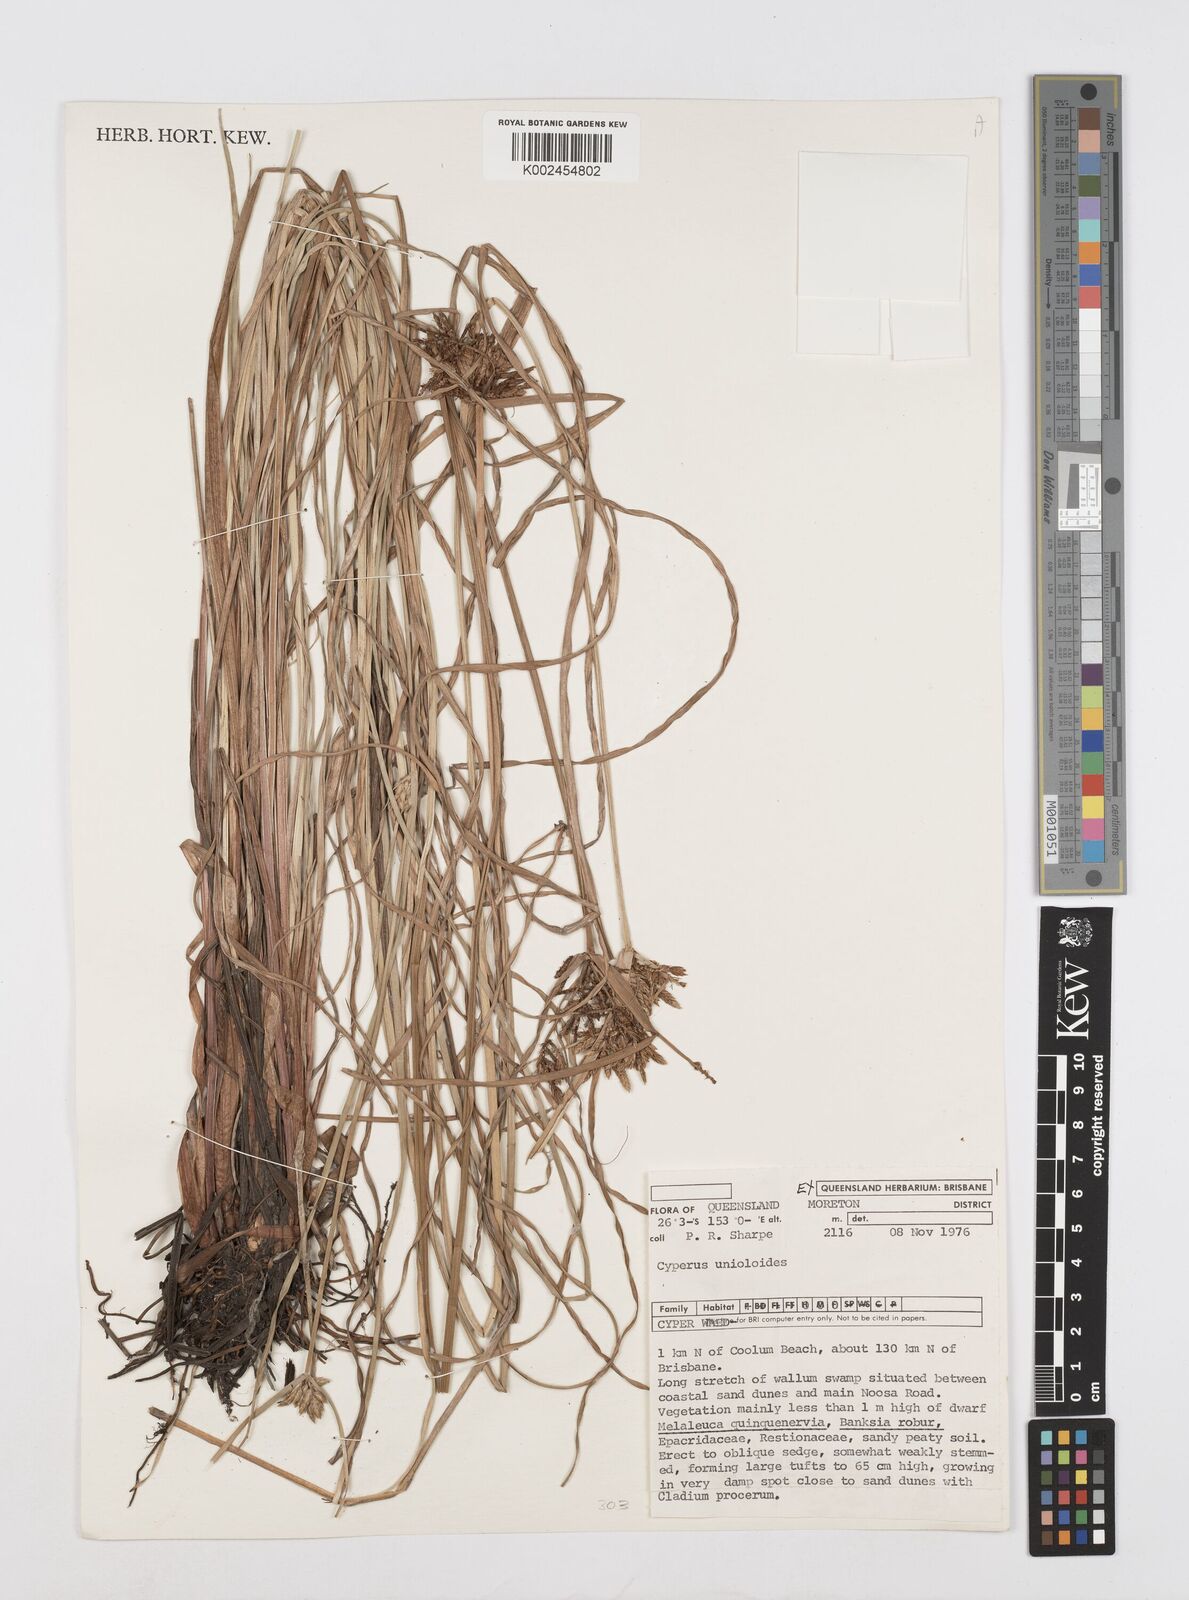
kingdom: Plantae
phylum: Tracheophyta
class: Liliopsida
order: Poales
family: Cyperaceae
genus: Cyperus
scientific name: Cyperus unioloides
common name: Uniola flatsedge
